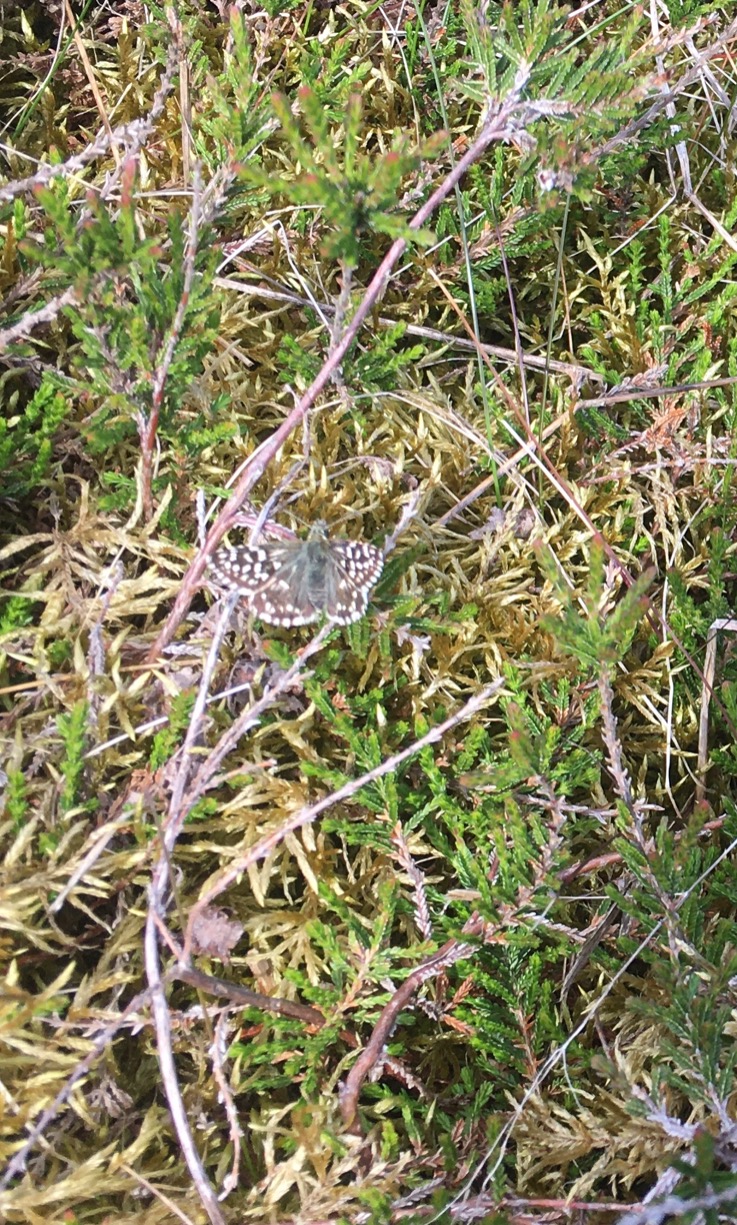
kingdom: Animalia
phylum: Arthropoda
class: Insecta
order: Lepidoptera
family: Hesperiidae
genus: Pyrgus
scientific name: Pyrgus malvae
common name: Spættet bredpande
